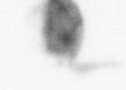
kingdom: Animalia
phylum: Arthropoda
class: Copepoda
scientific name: Copepoda
